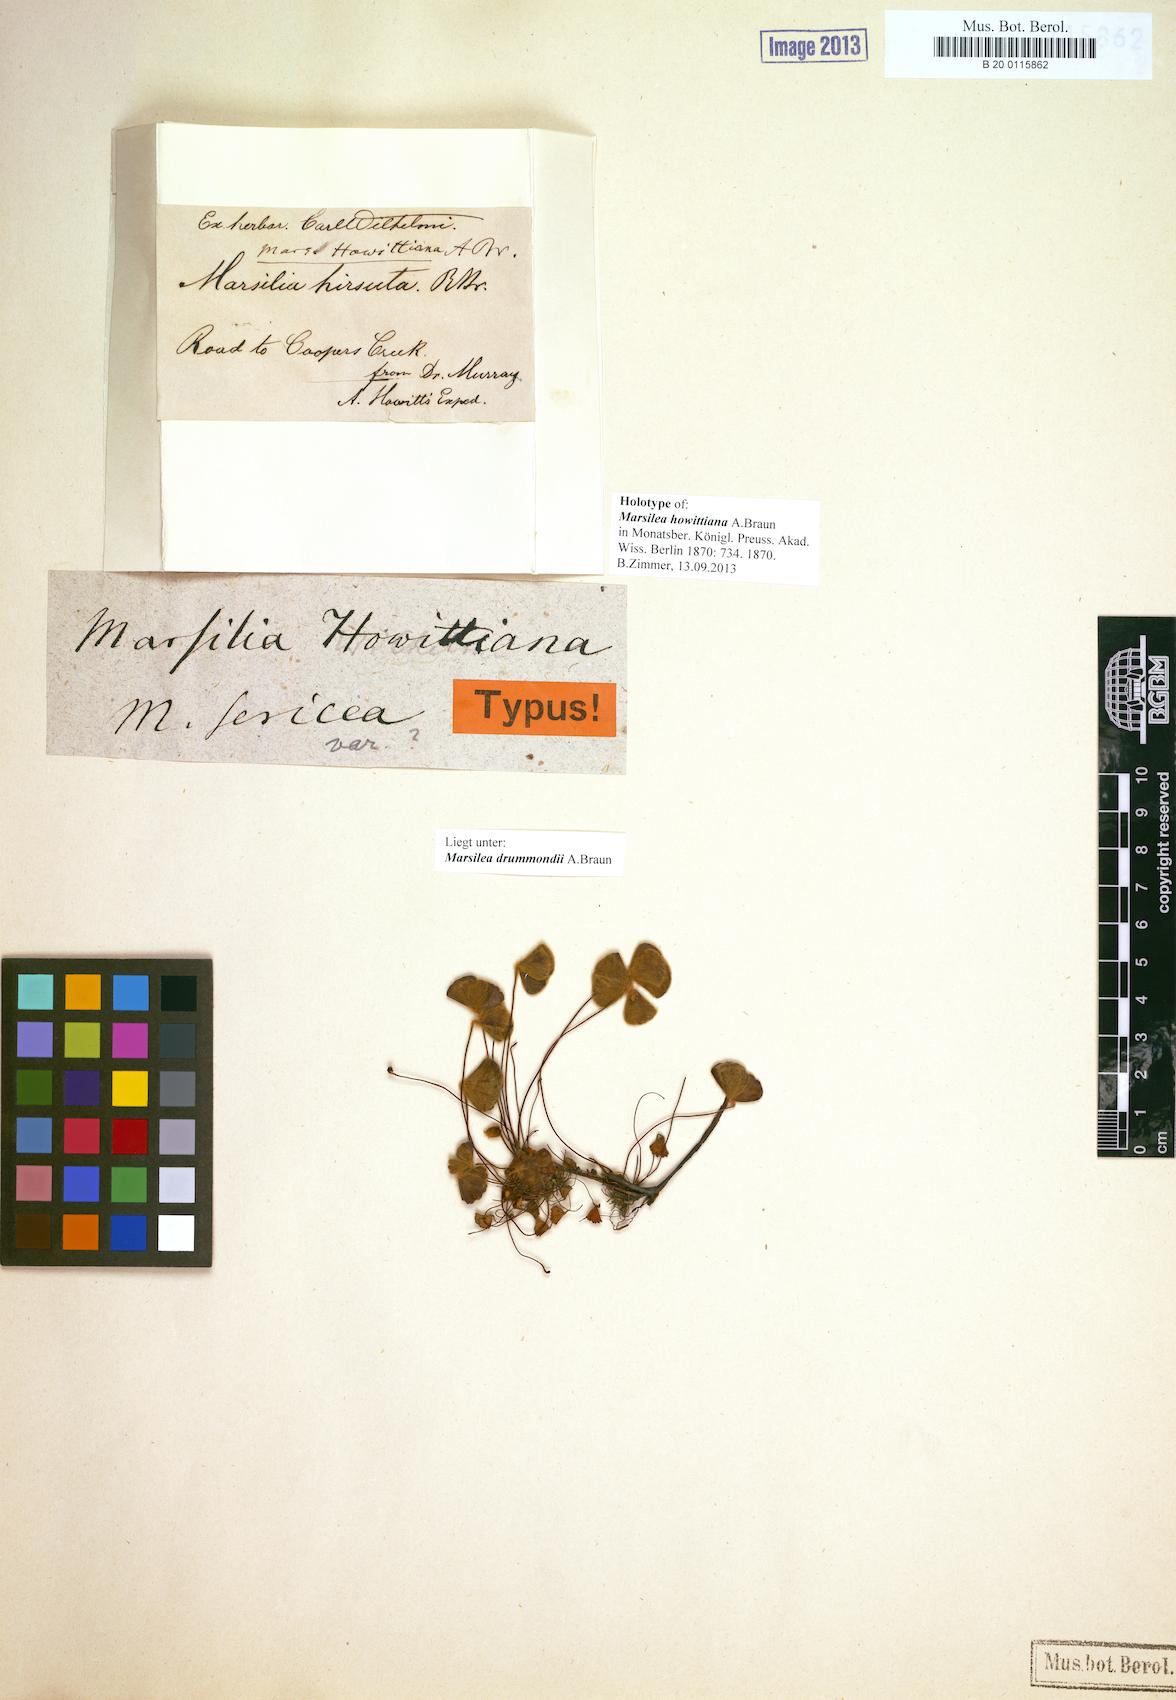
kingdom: Plantae
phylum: Tracheophyta
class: Polypodiopsida
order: Salviniales
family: Marsileaceae
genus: Marsilea
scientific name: Marsilea drummondii
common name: Nardoo
